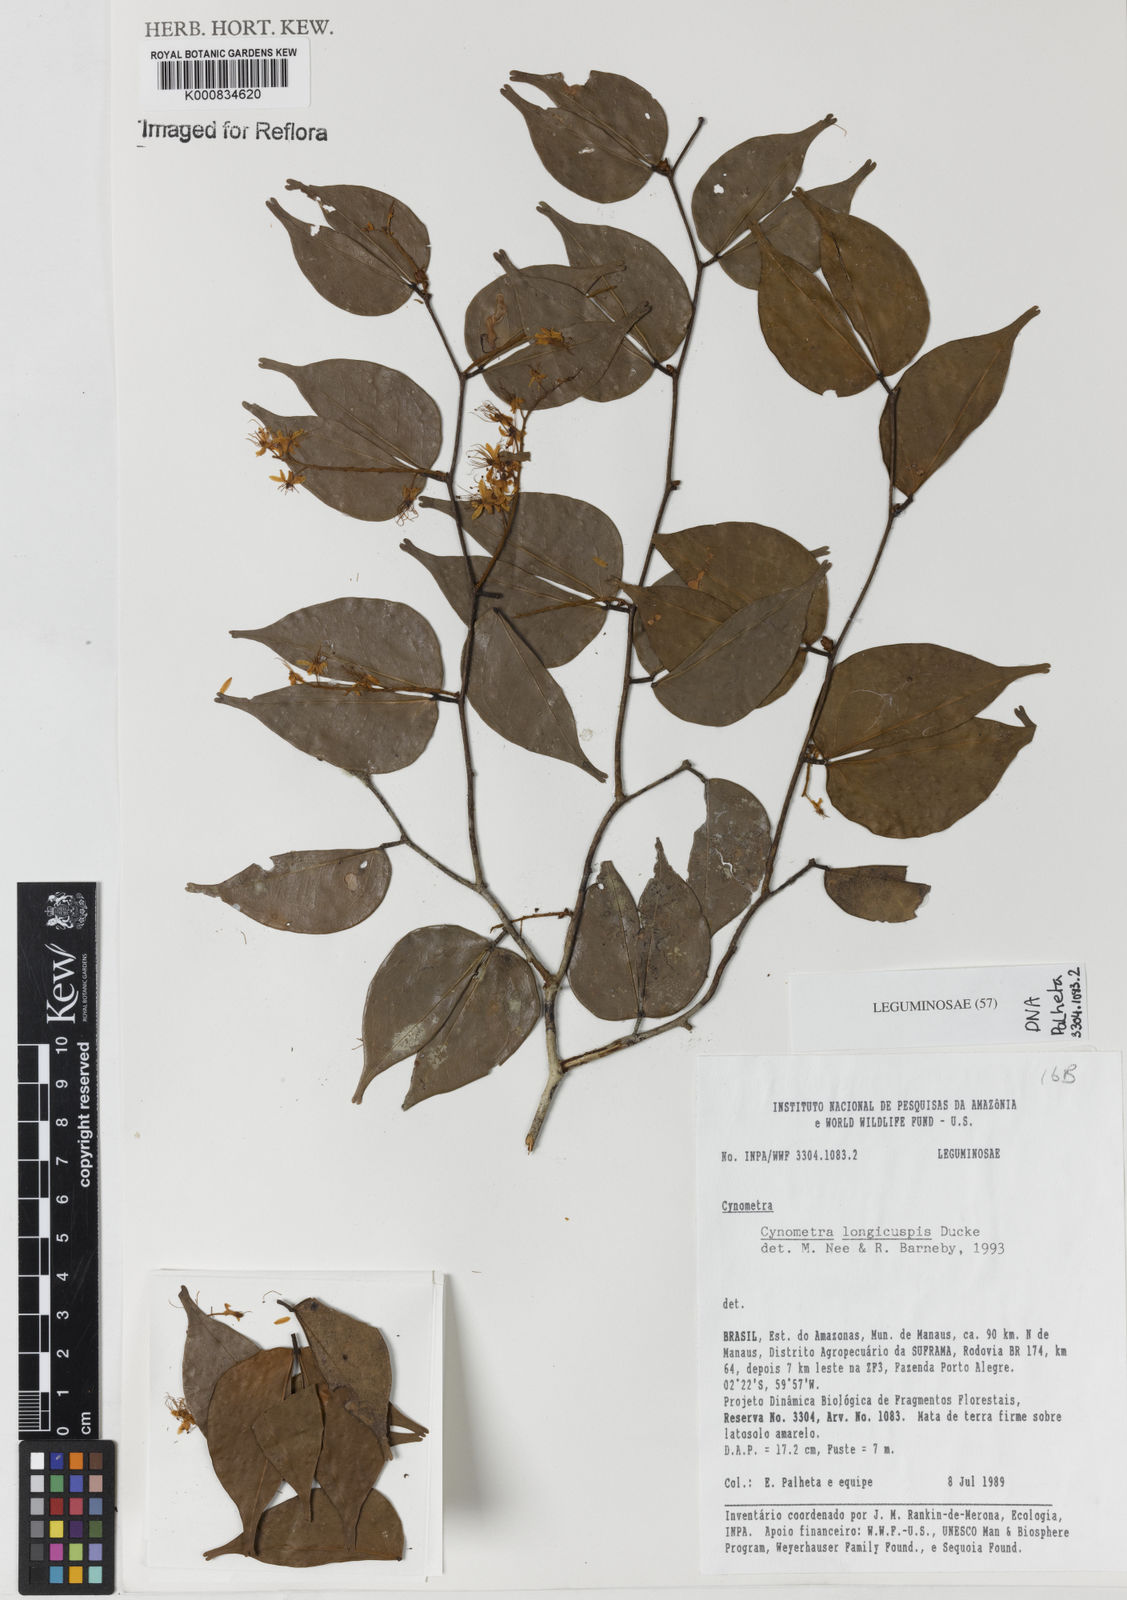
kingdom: Plantae
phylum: Tracheophyta
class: Magnoliopsida
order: Fabales
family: Fabaceae
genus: Cynometra
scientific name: Cynometra longicuspis
